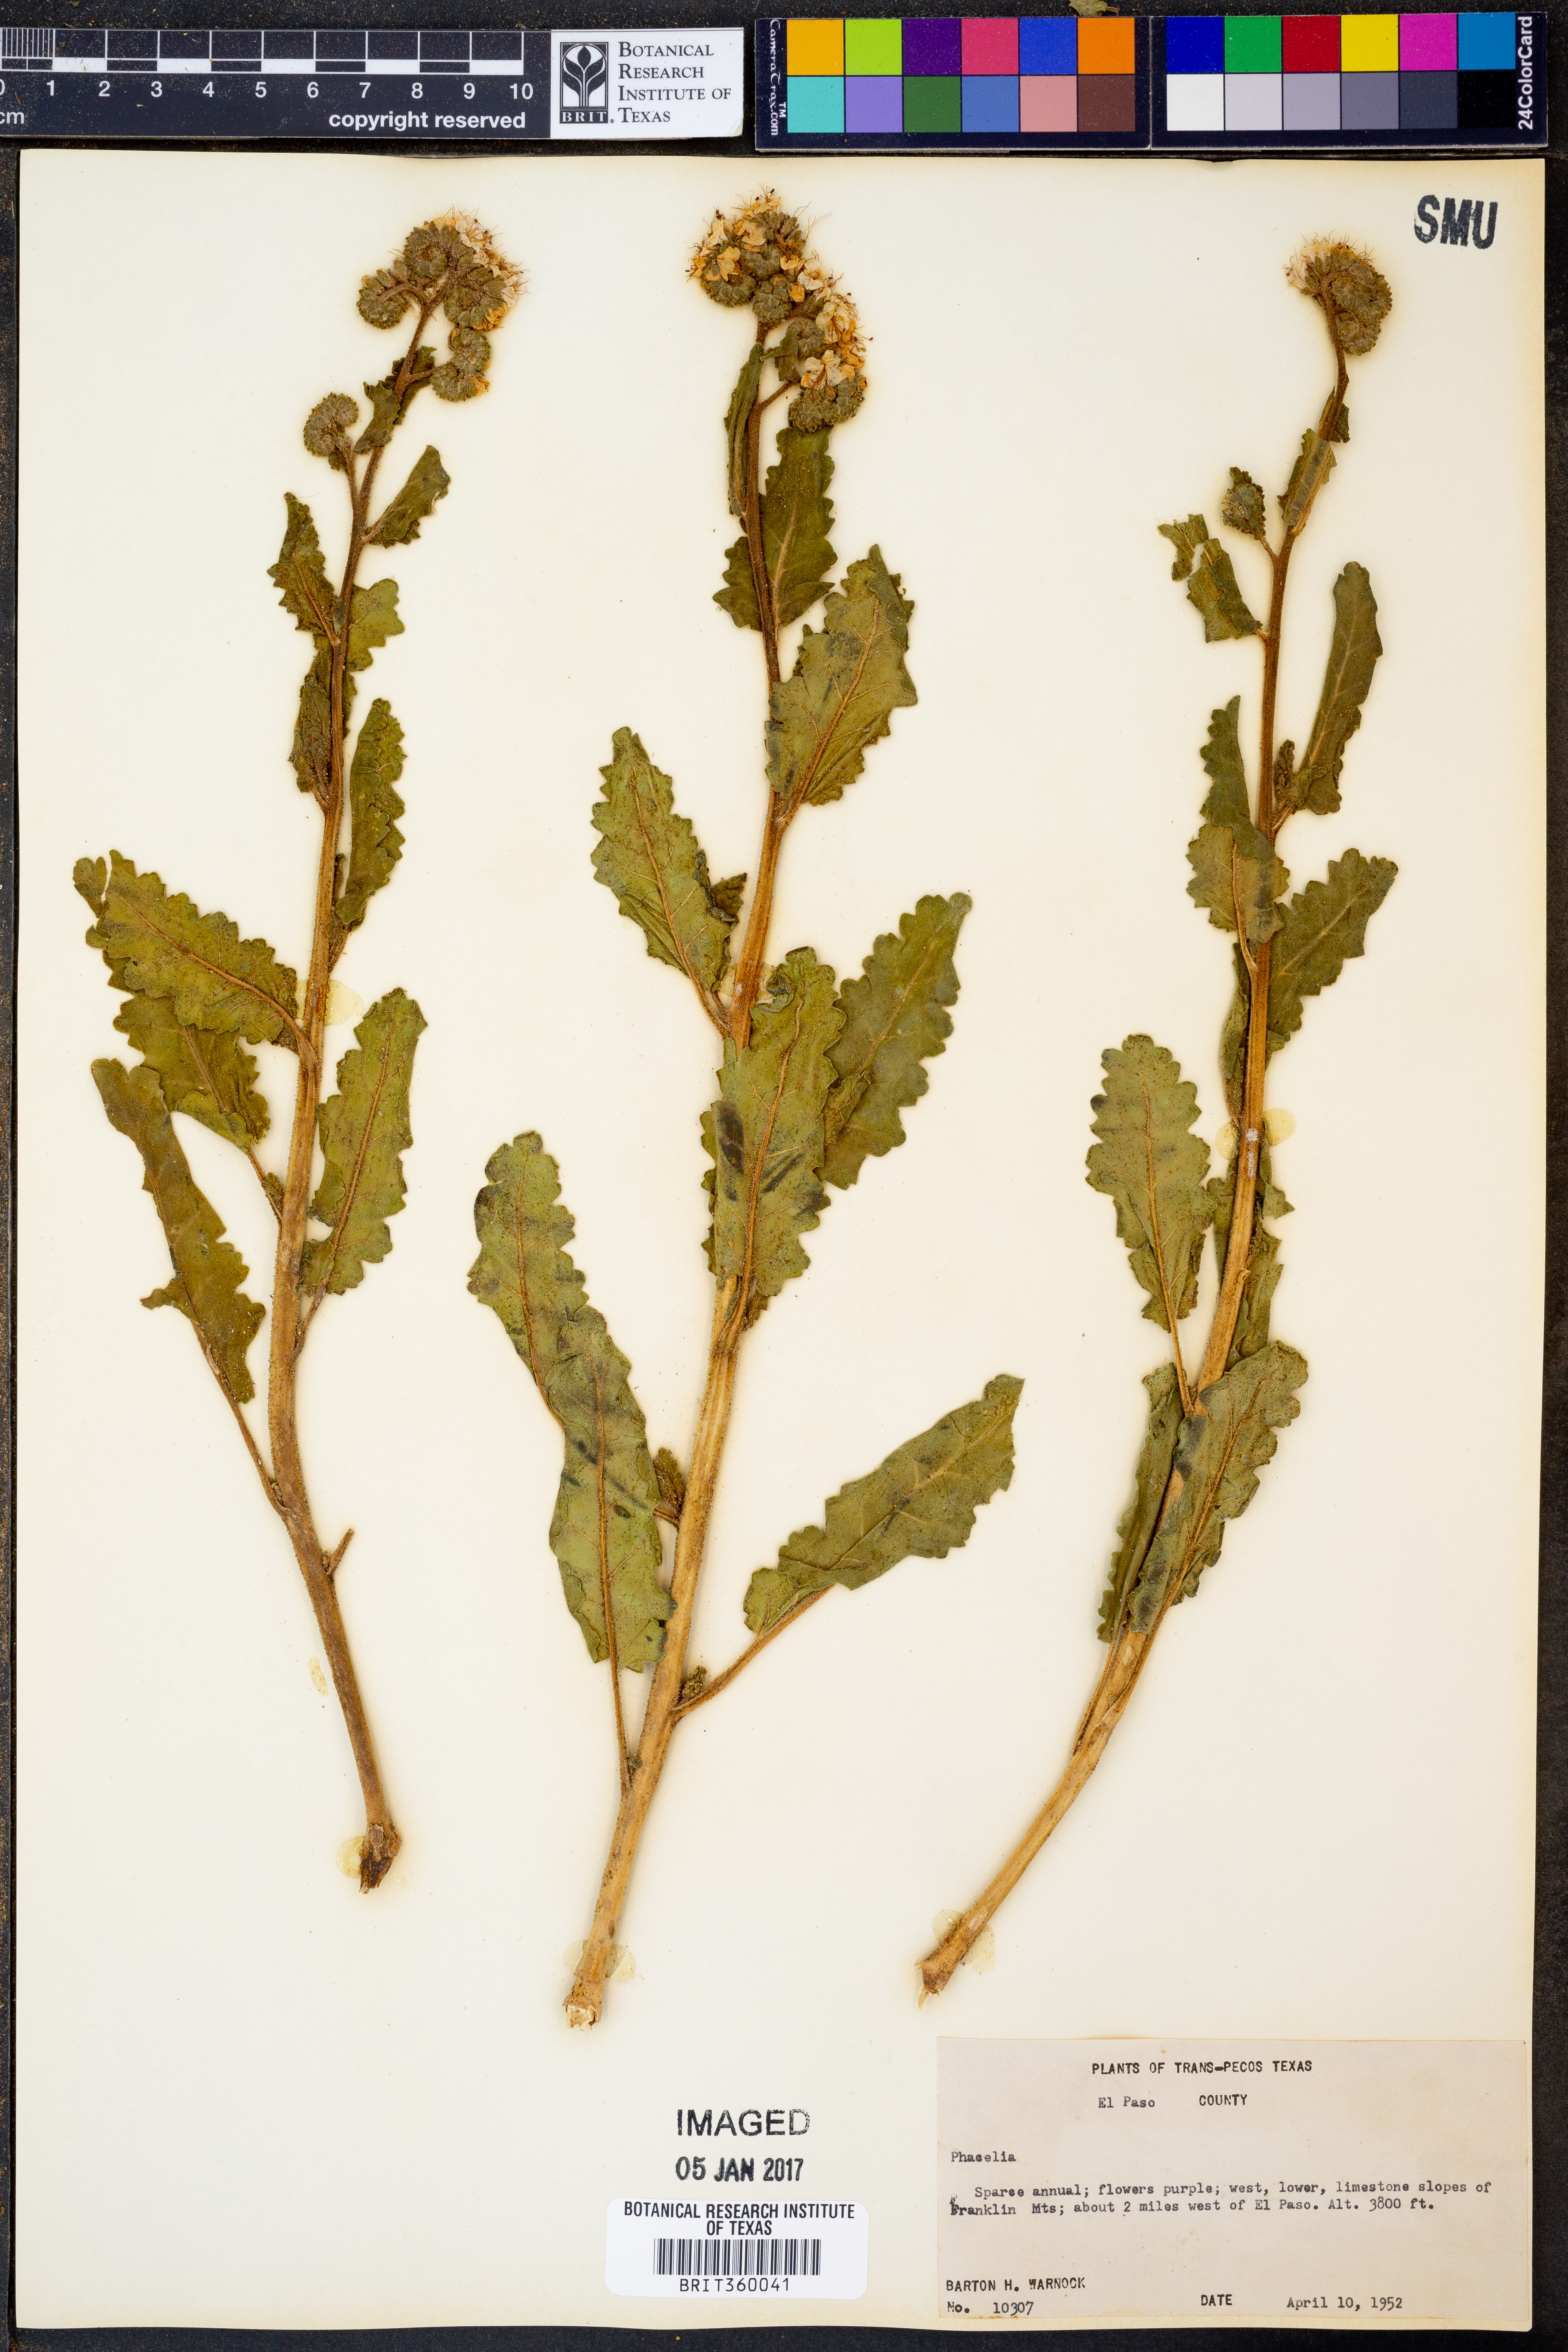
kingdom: Plantae
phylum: Tracheophyta
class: Magnoliopsida
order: Boraginales
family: Hydrophyllaceae
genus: Phacelia
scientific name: Phacelia
